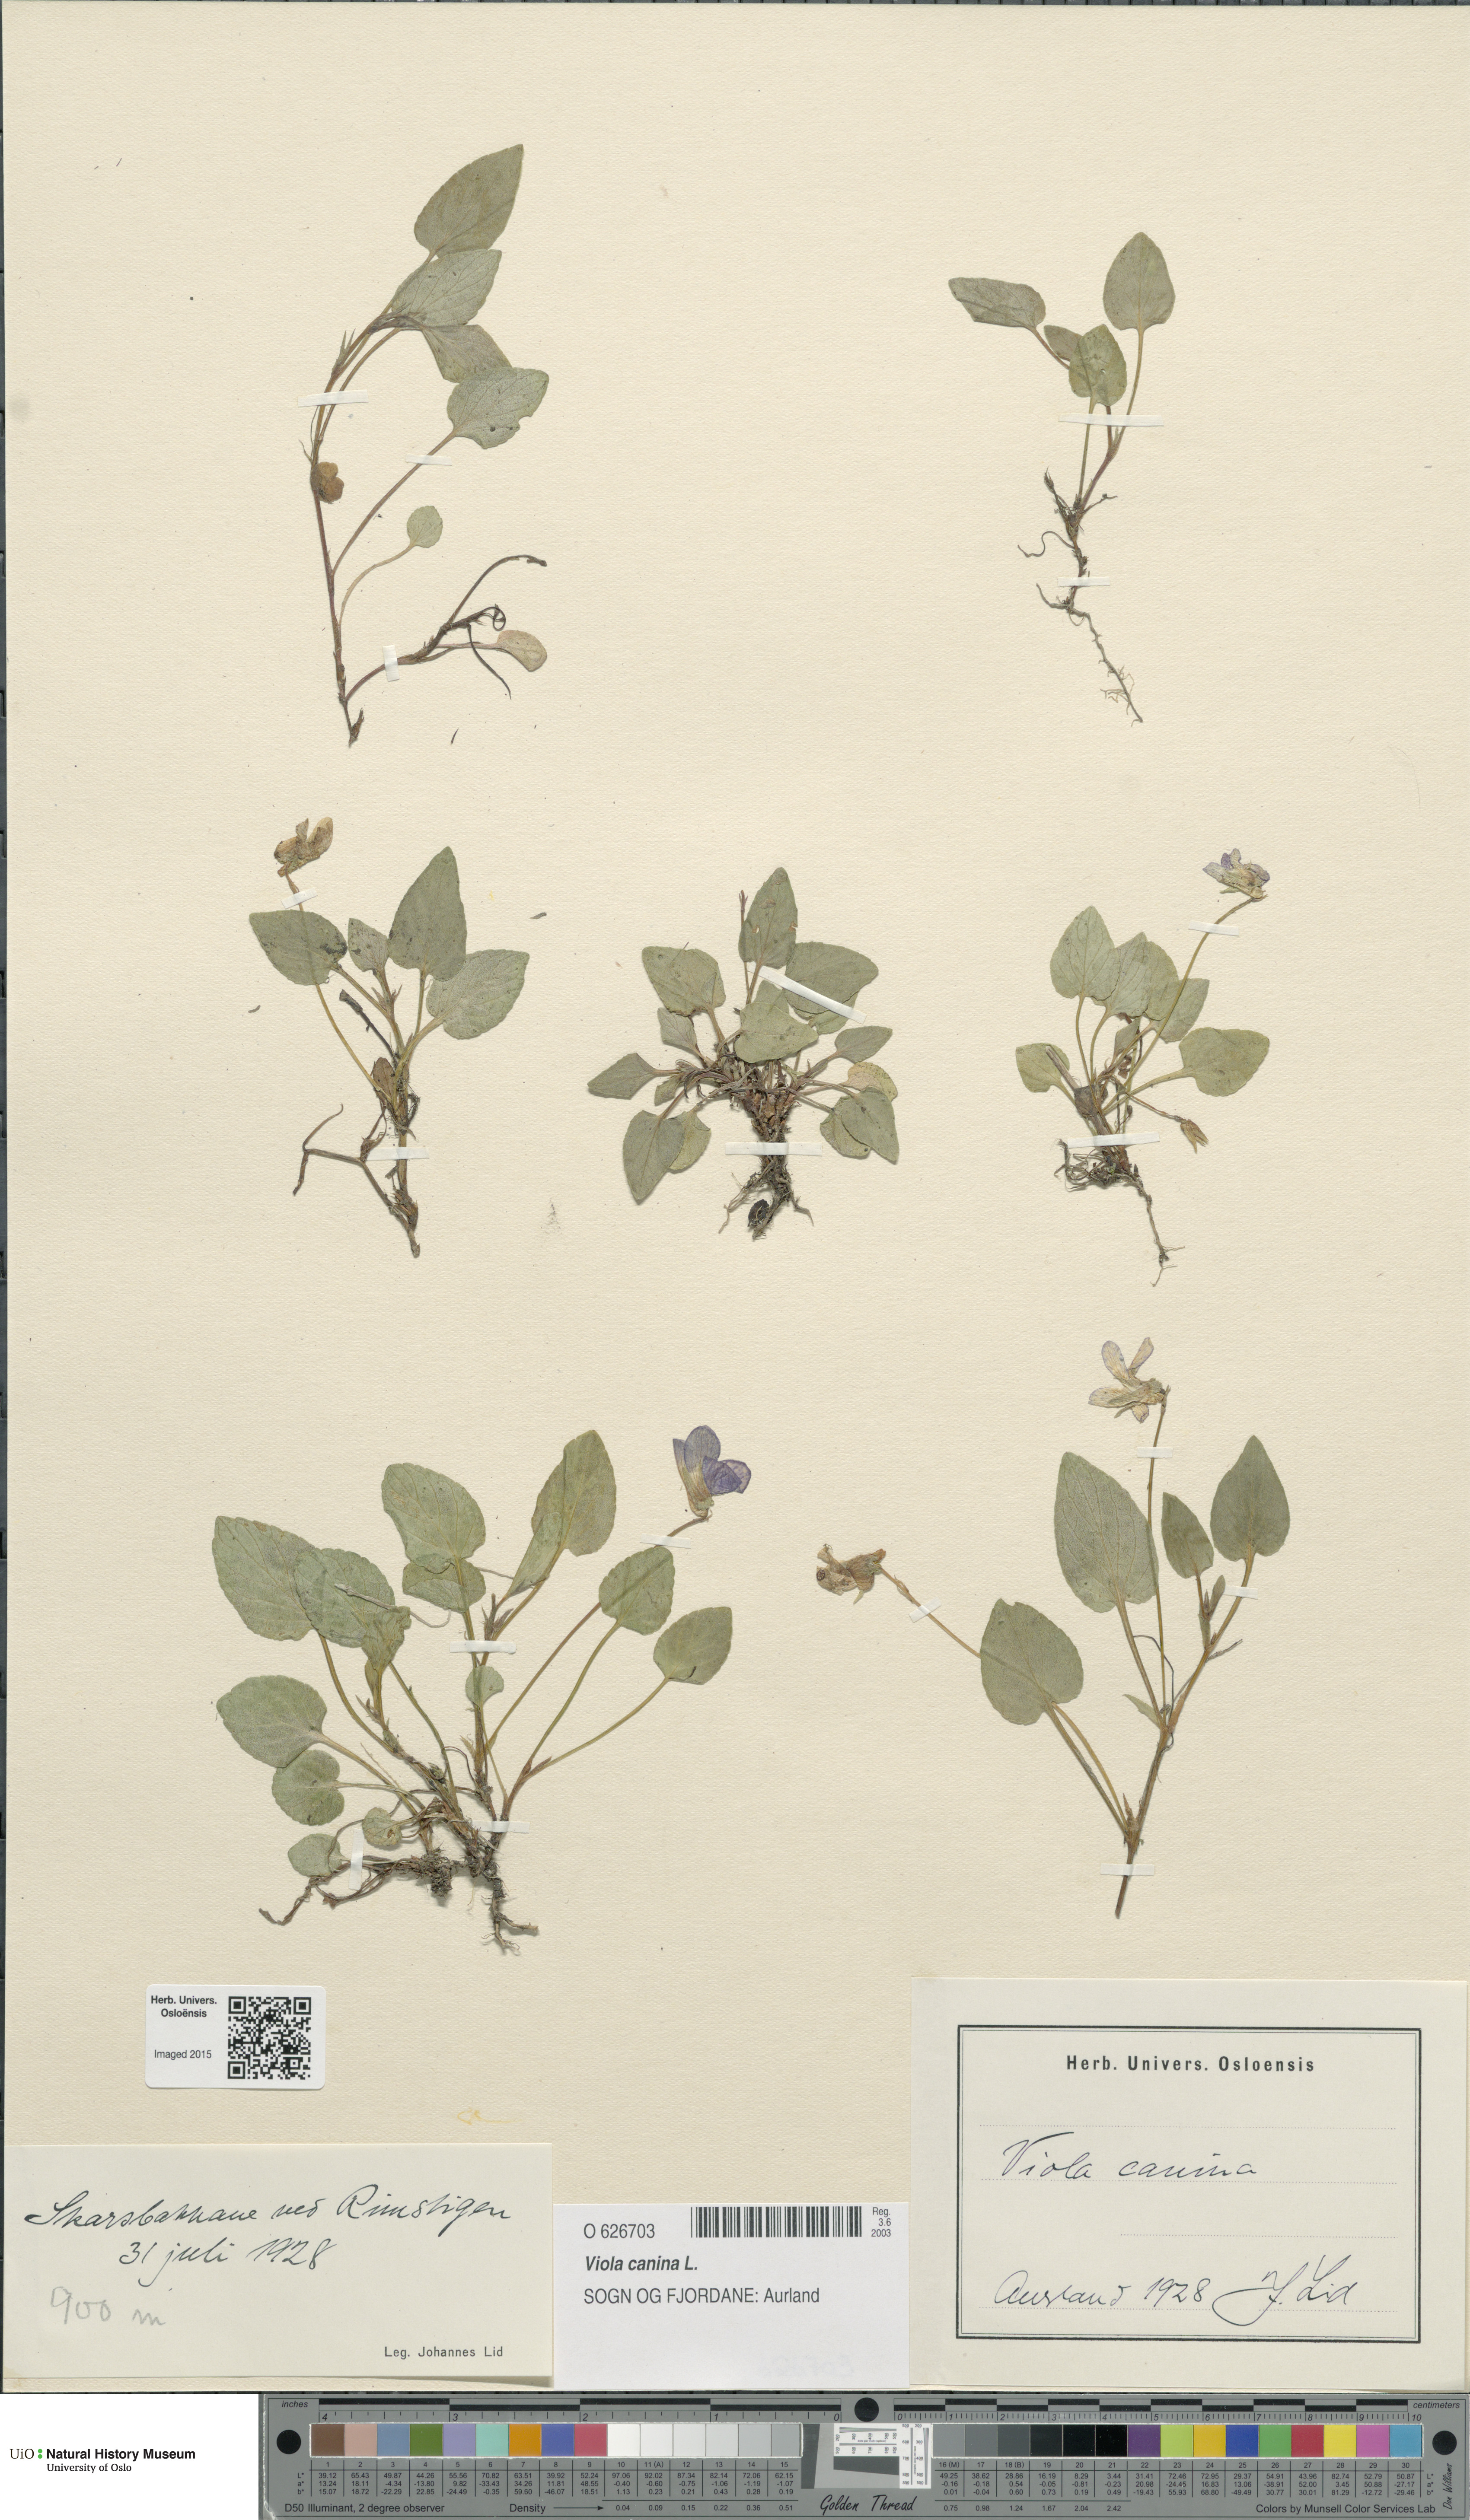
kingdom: Plantae
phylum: Tracheophyta
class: Magnoliopsida
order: Malpighiales
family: Violaceae
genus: Viola
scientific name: Viola canina
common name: Heath dog-violet
